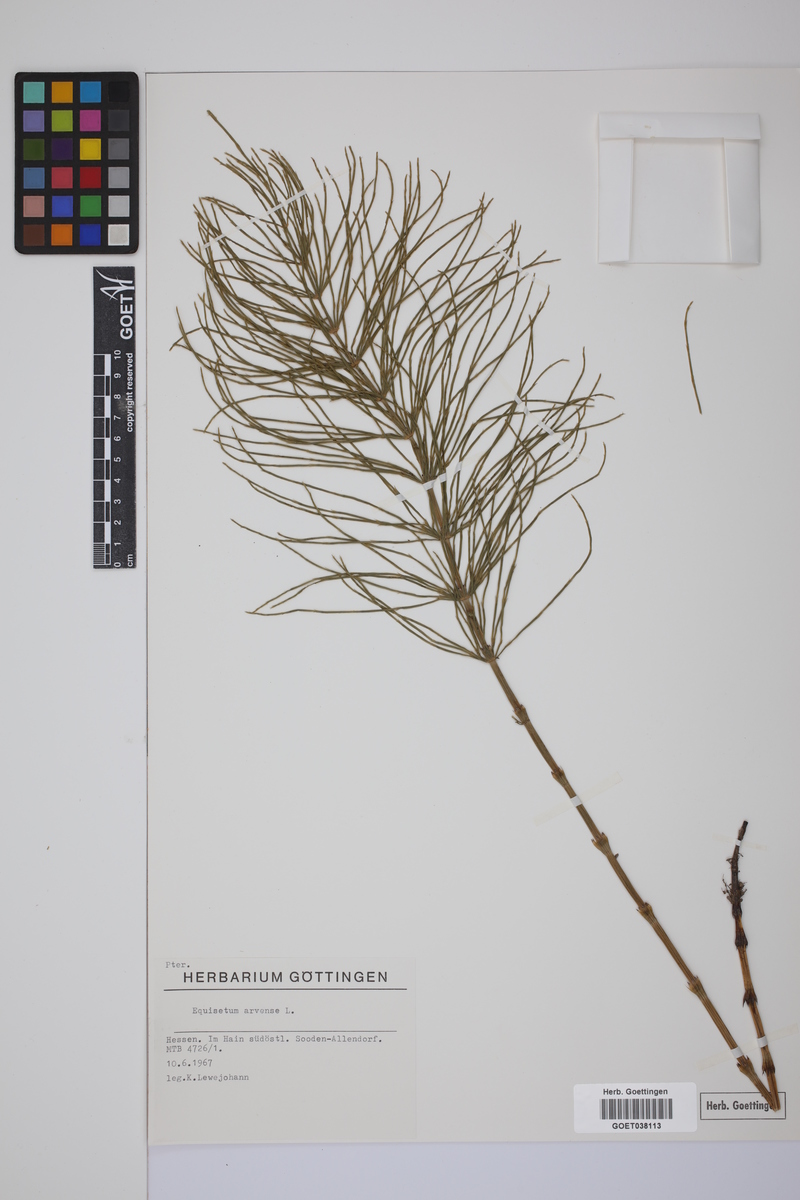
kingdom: Plantae
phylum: Tracheophyta
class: Polypodiopsida
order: Equisetales
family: Equisetaceae
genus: Equisetum
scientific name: Equisetum arvense
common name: Field horsetail
